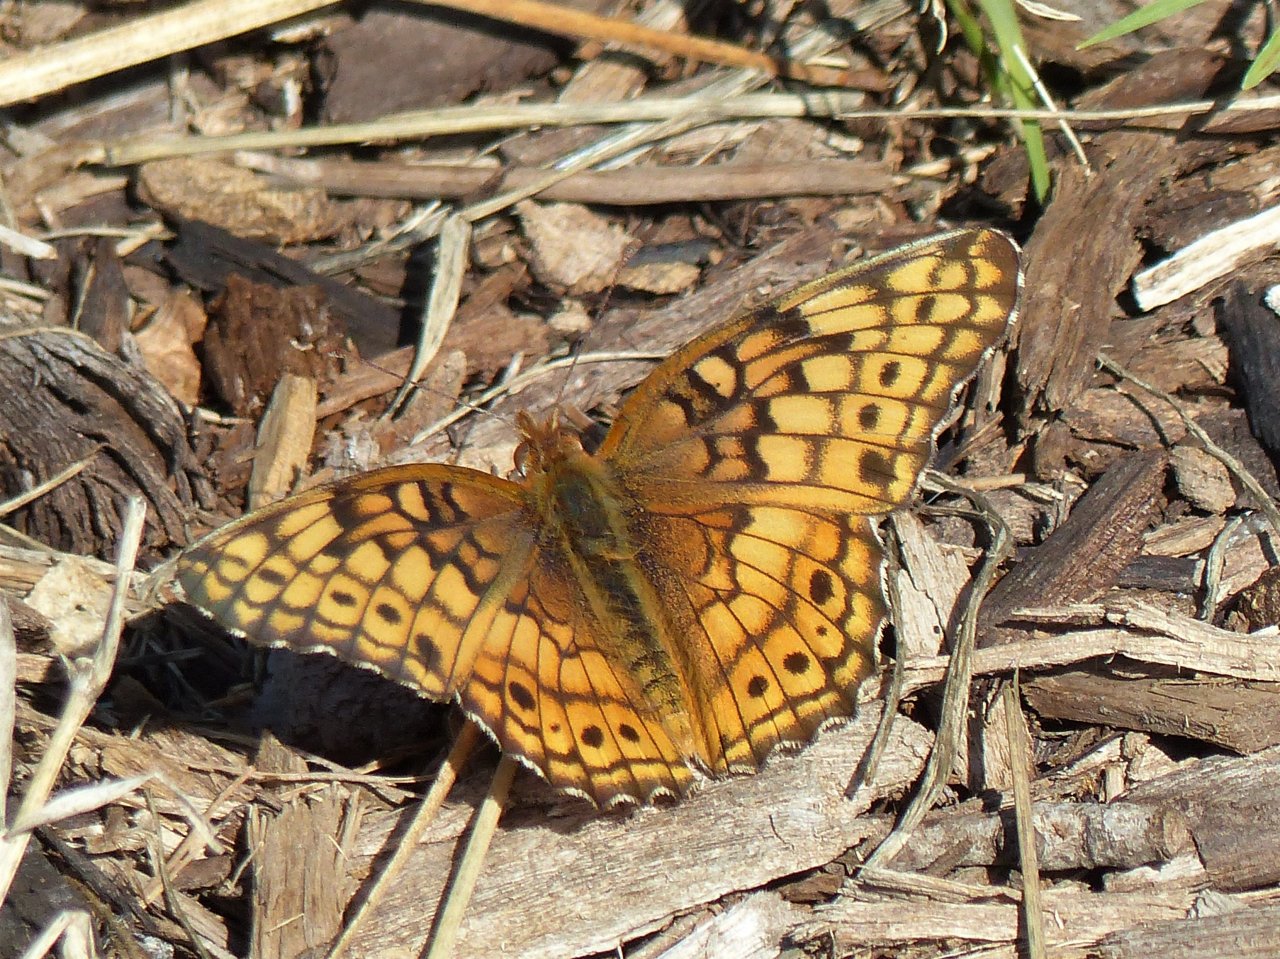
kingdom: Animalia
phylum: Arthropoda
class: Insecta
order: Lepidoptera
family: Nymphalidae
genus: Euptoieta
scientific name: Euptoieta claudia
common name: Variegated Fritillary
